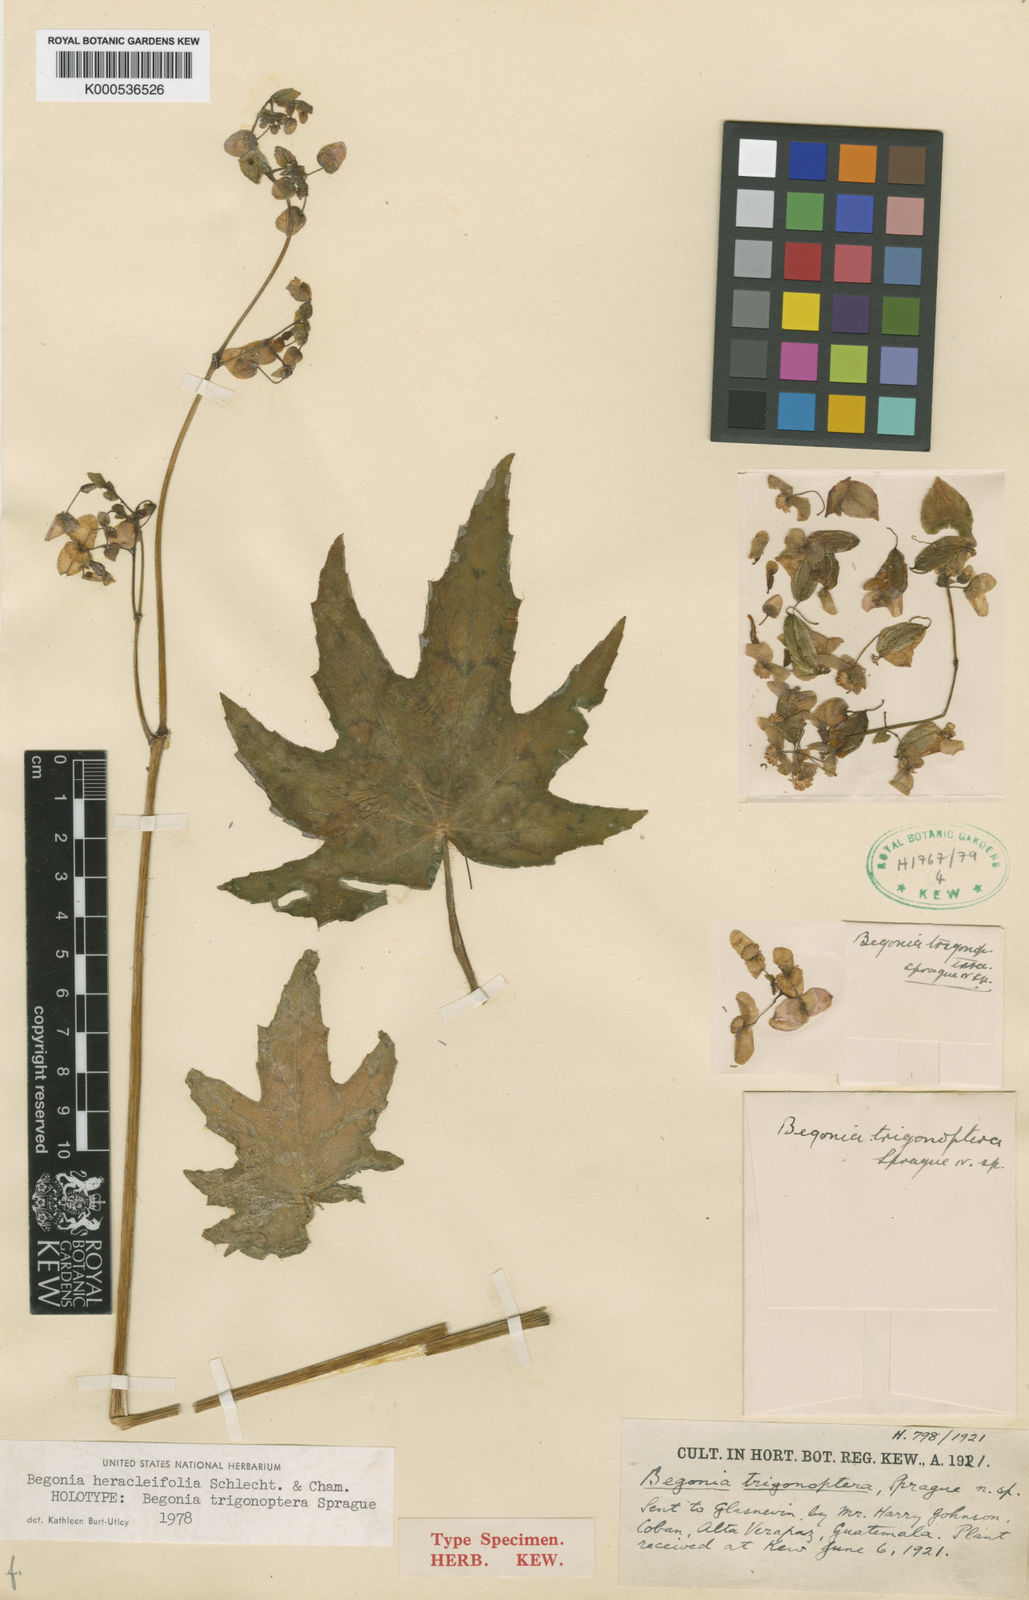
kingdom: Plantae
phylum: Tracheophyta
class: Magnoliopsida
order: Cucurbitales
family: Begoniaceae
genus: Begonia
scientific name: Begonia heracleifolia
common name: Star begonia
